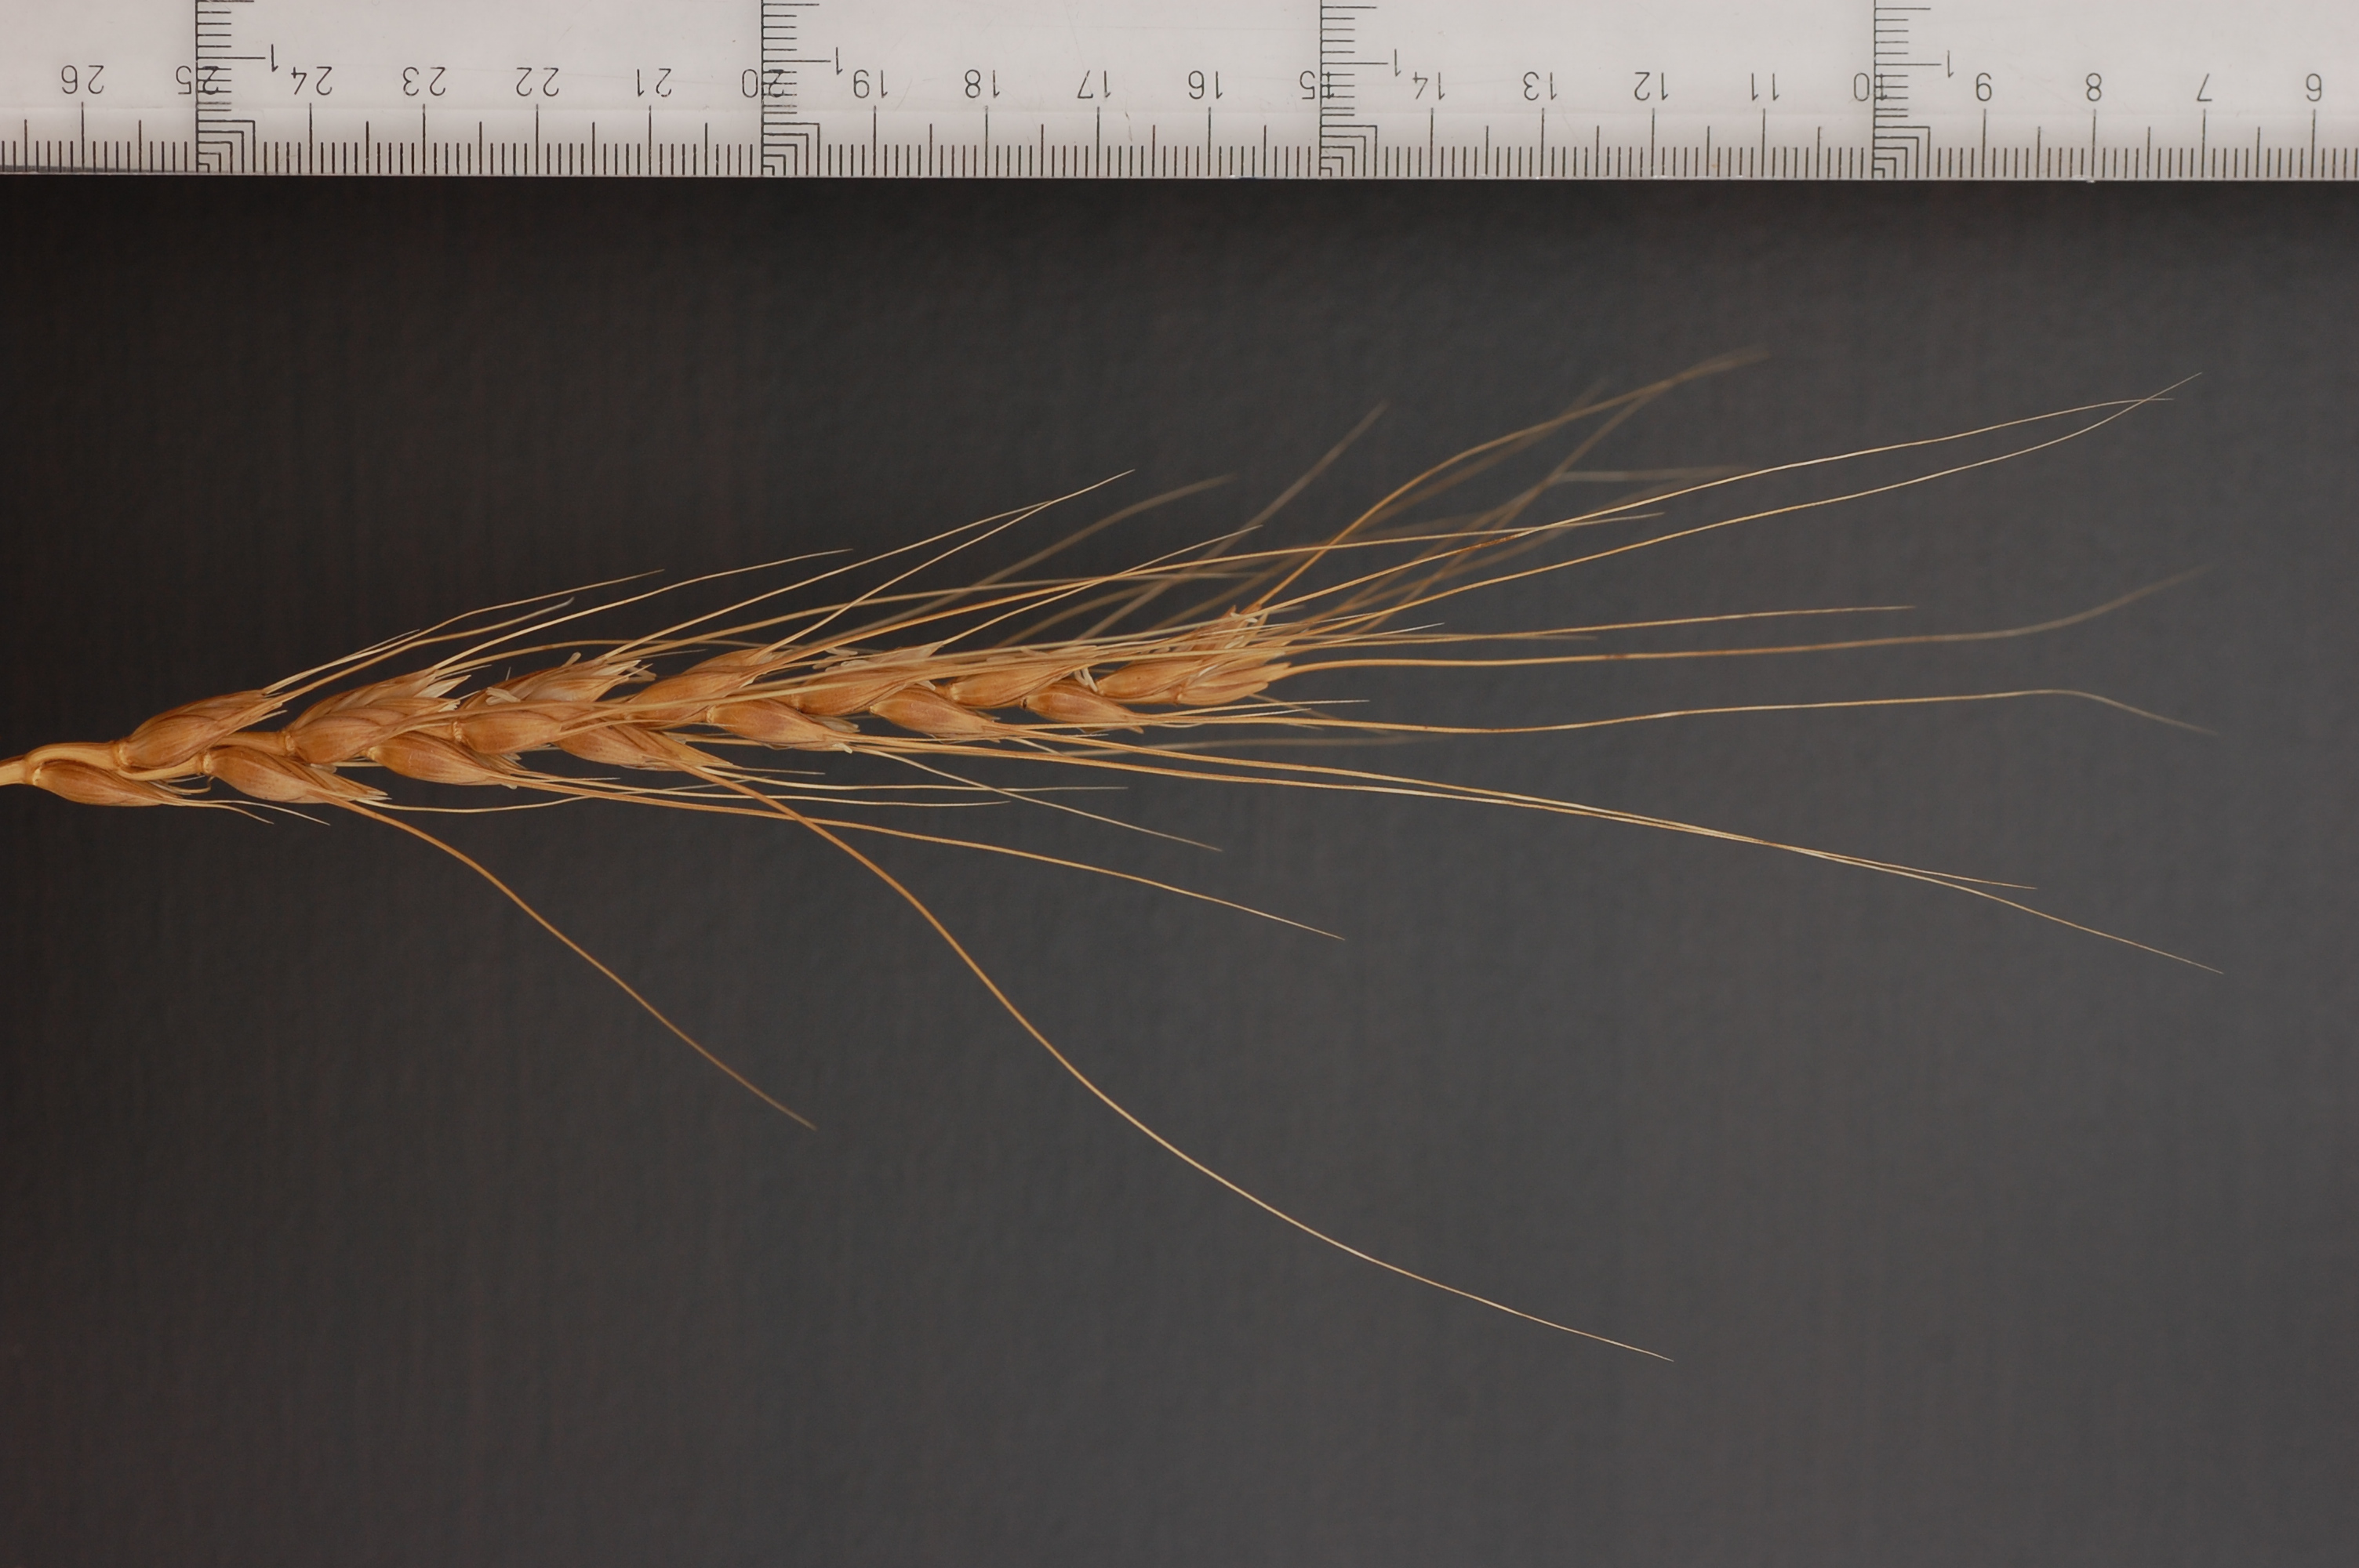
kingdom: Plantae
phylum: Tracheophyta
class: Liliopsida
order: Poales
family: Poaceae
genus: Triticum
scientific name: Triticum aestivum
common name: Common wheat
